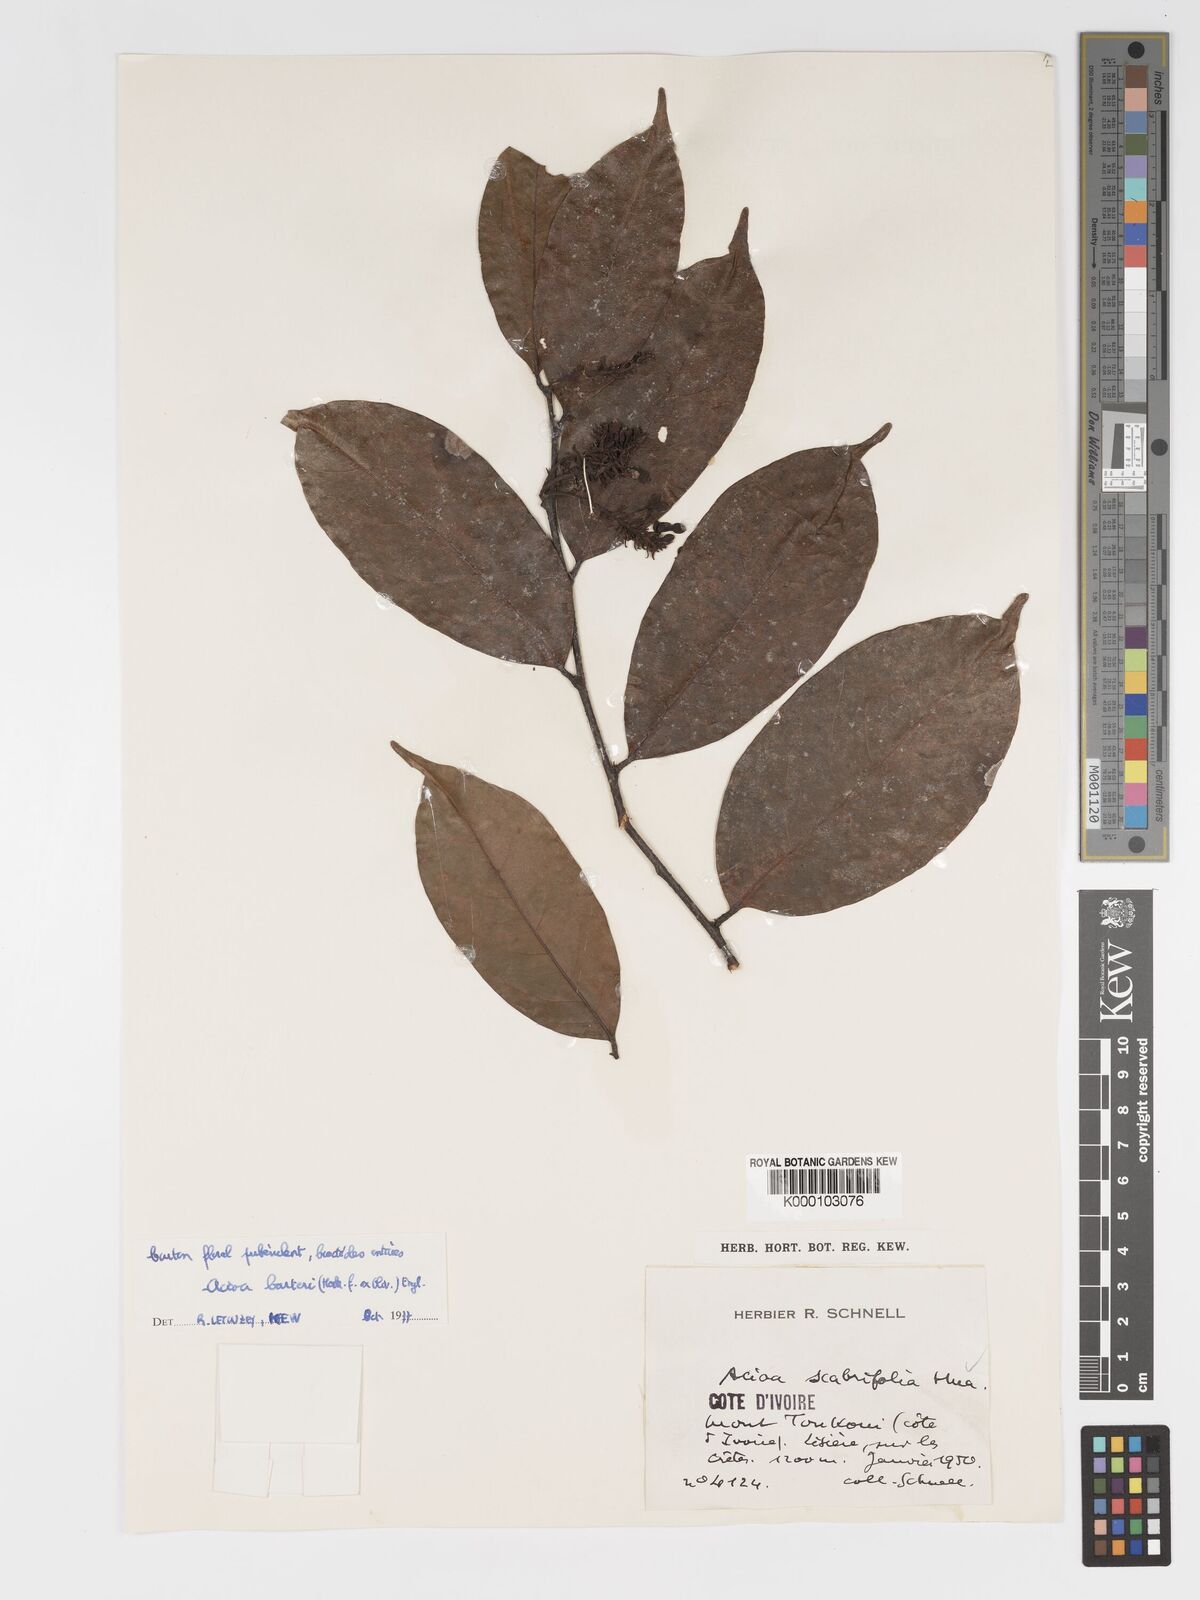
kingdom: Plantae
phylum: Tracheophyta
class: Magnoliopsida
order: Malpighiales
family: Chrysobalanaceae
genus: Dactyladenia
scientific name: Dactyladenia barteri
